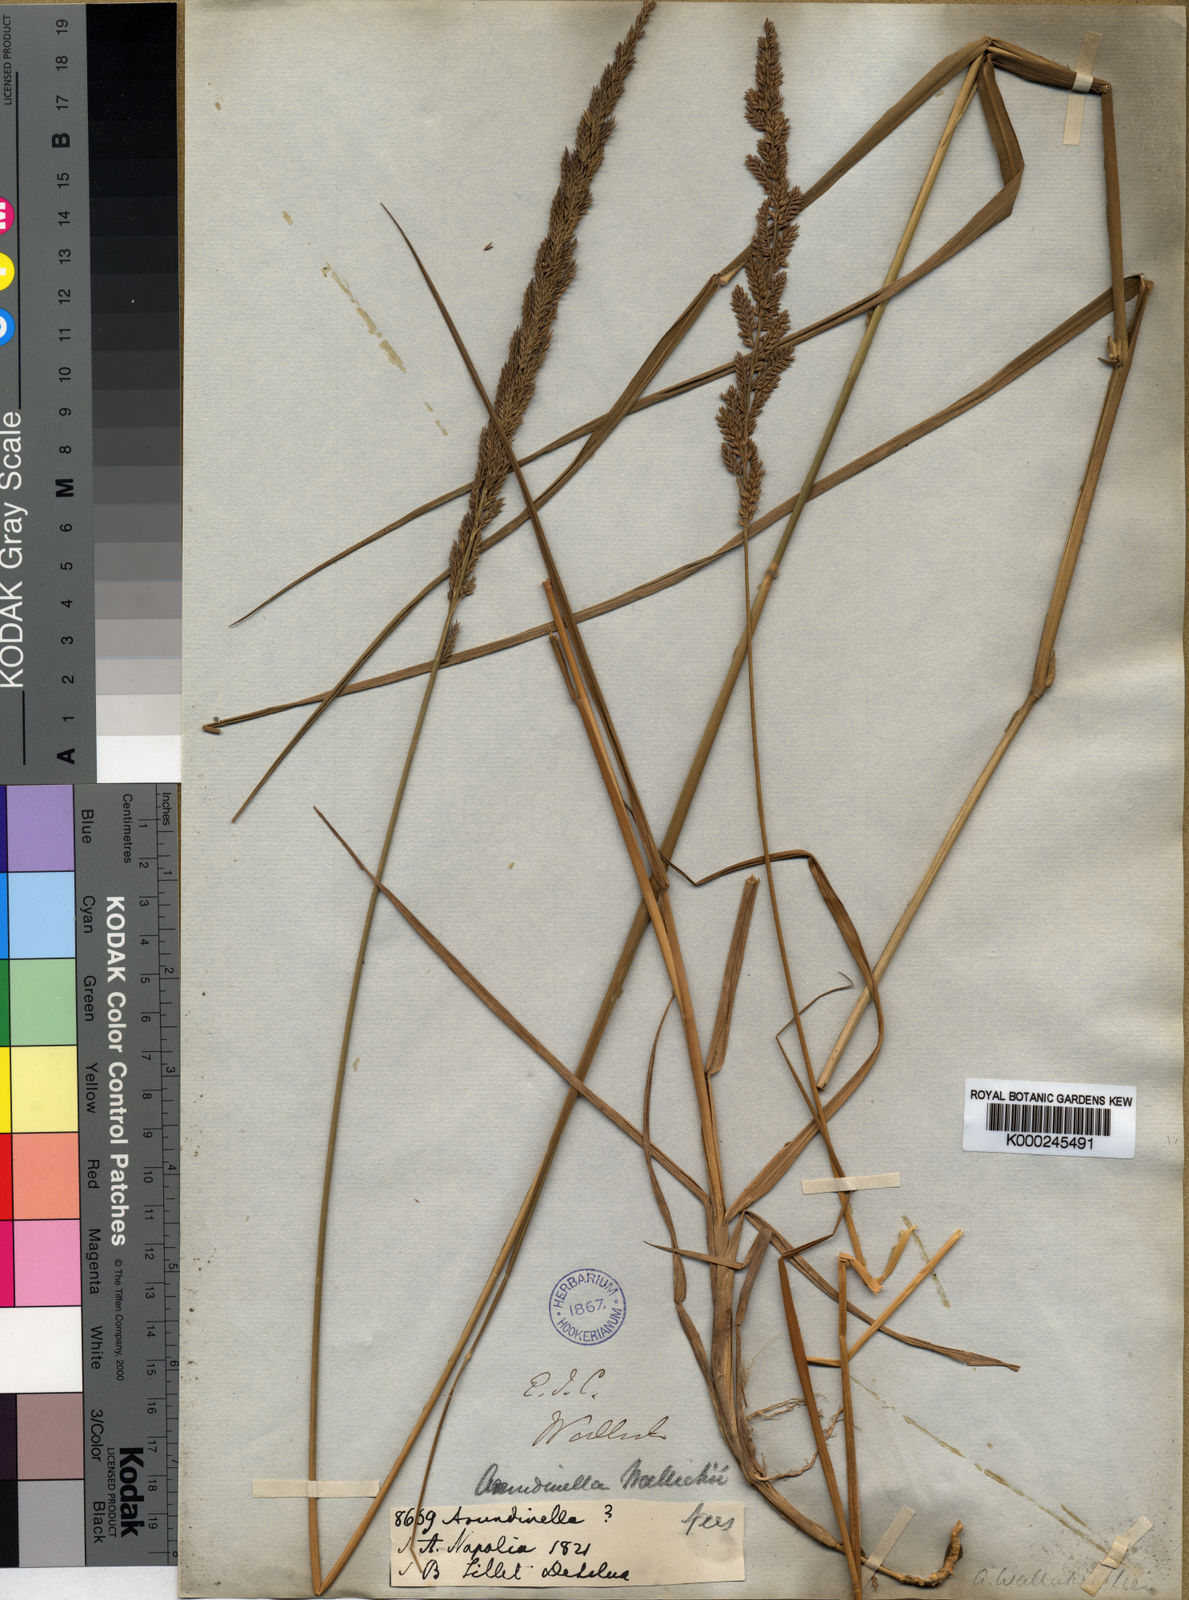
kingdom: Plantae
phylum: Tracheophyta
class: Liliopsida
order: Poales
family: Poaceae
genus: Arundinella
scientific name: Arundinella bengalensis
